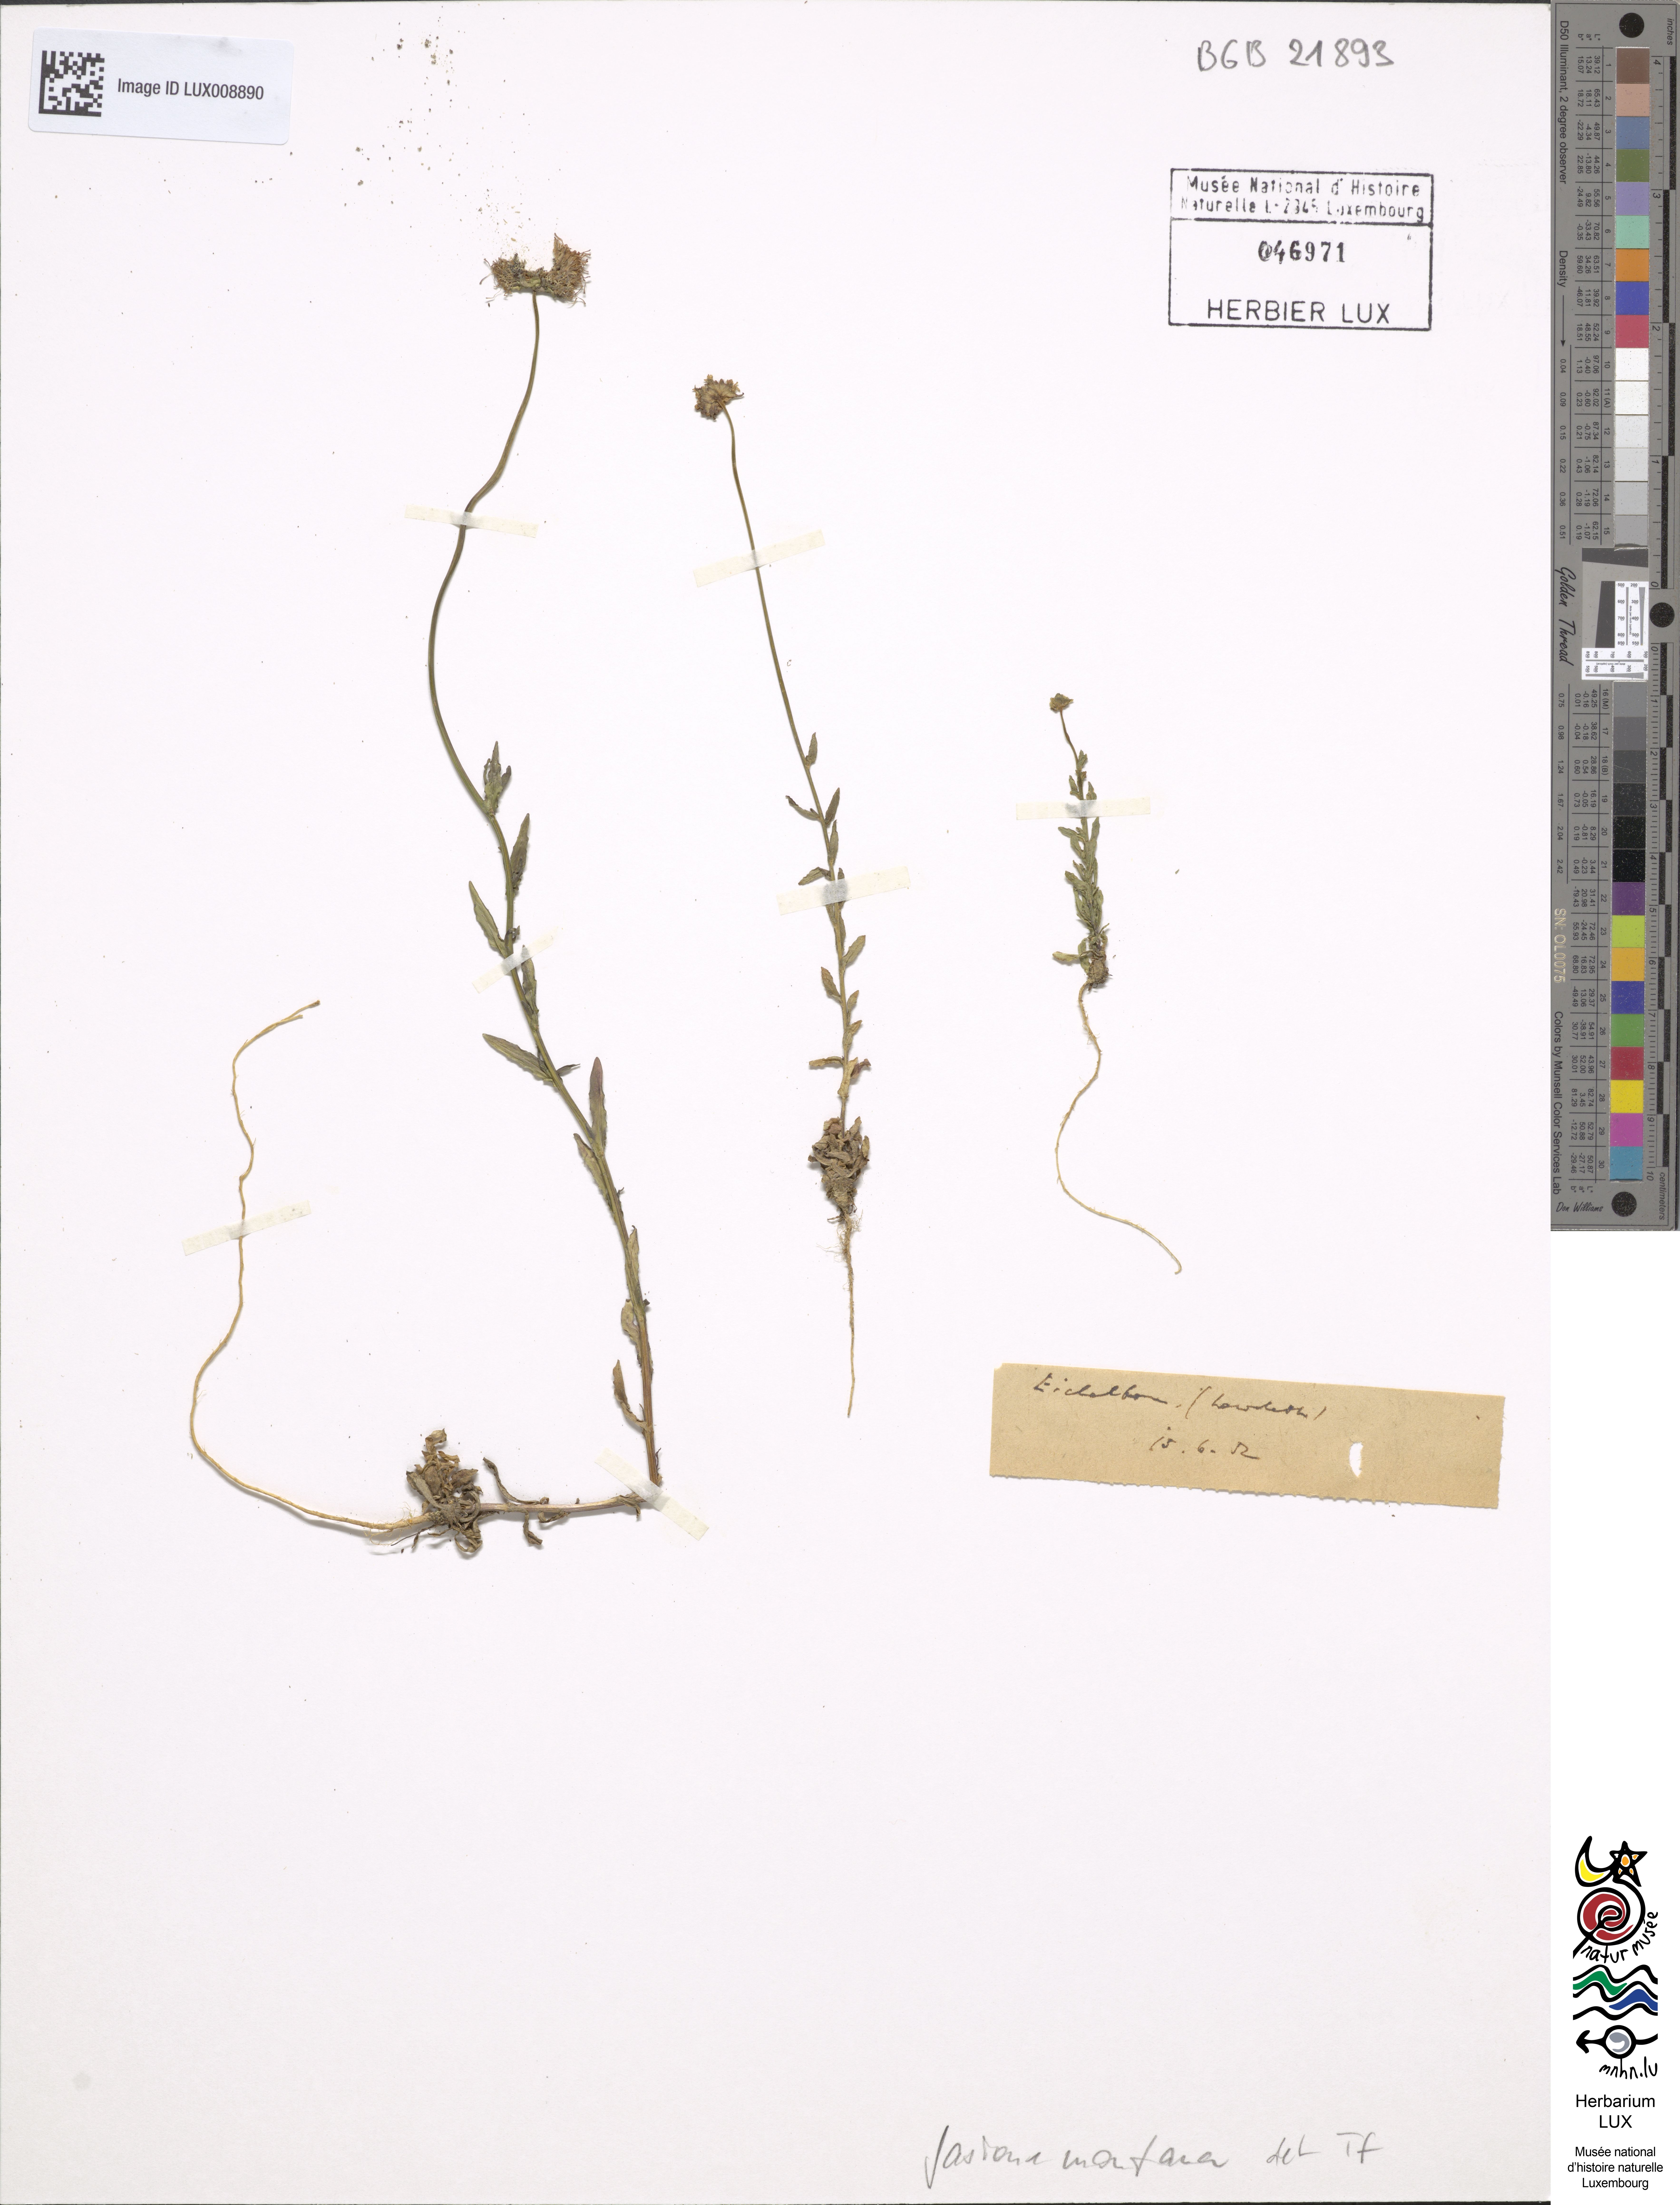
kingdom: Plantae
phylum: Tracheophyta
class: Magnoliopsida
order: Asterales
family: Campanulaceae
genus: Jasione
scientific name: Jasione montana
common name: Sheep's-bit
